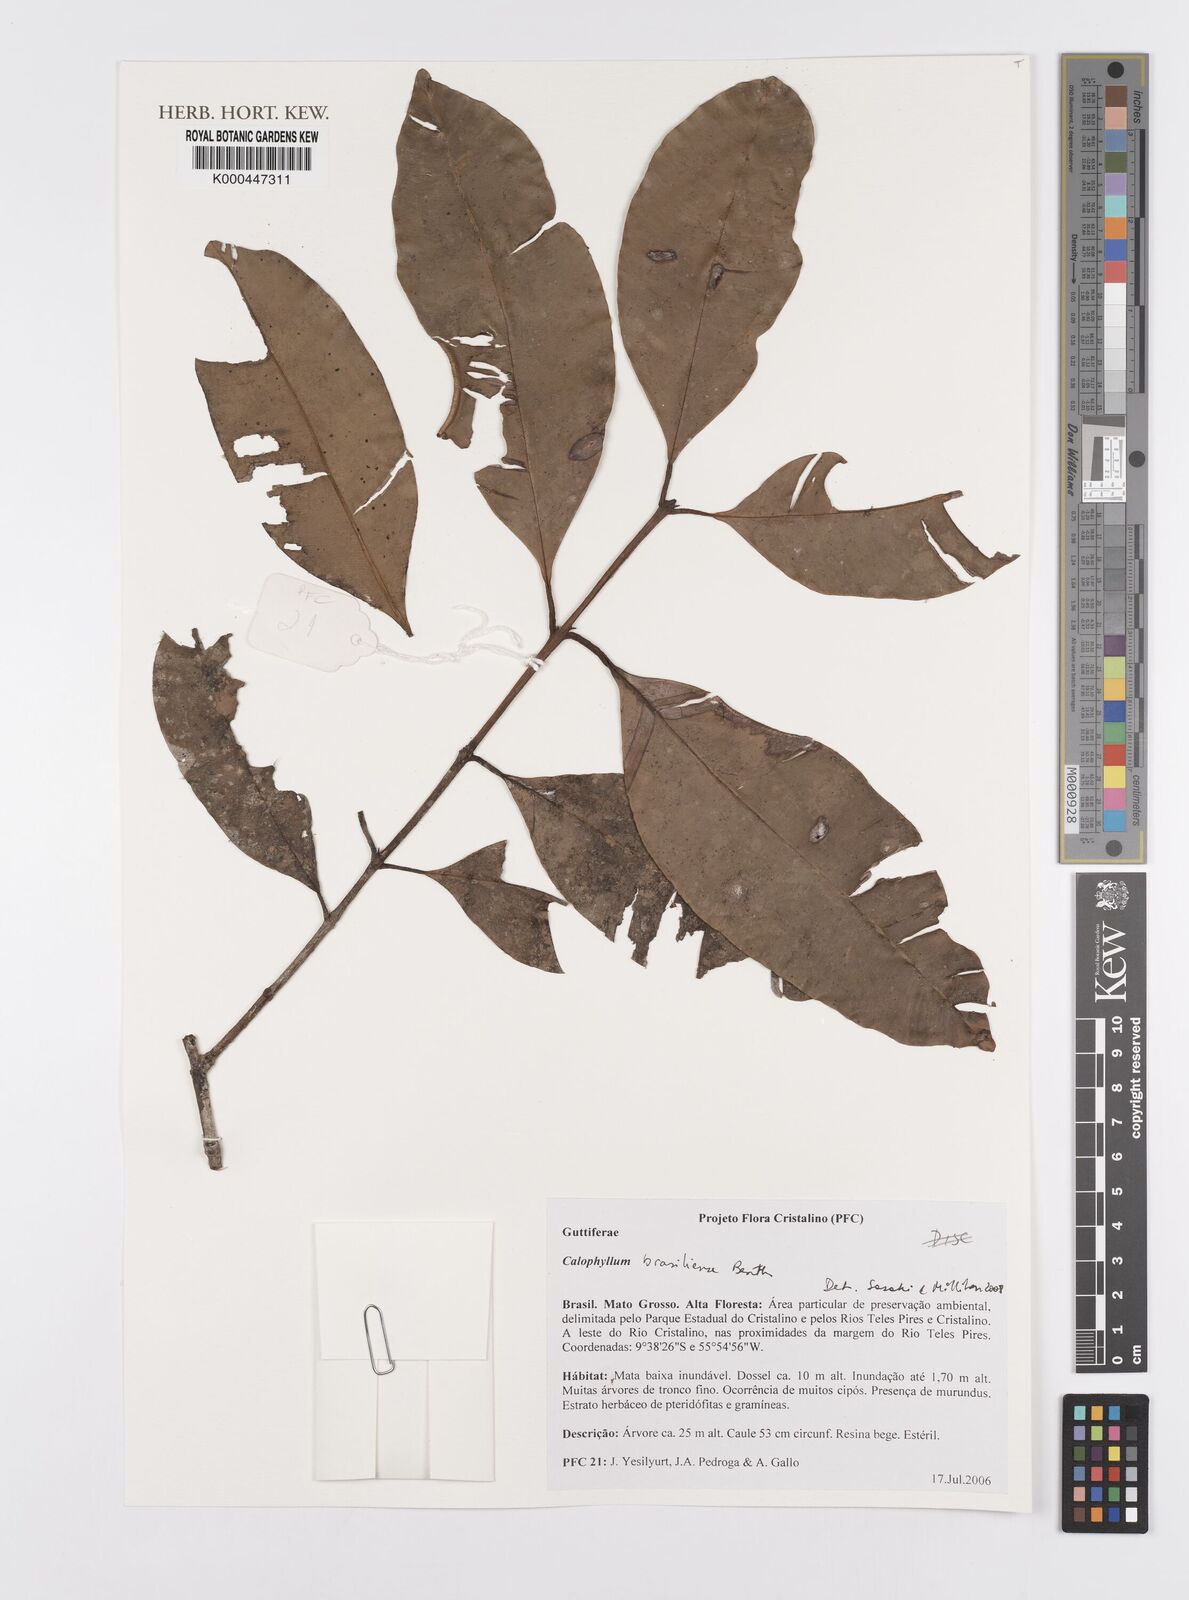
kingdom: Plantae
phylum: Tracheophyta
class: Magnoliopsida
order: Malpighiales
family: Calophyllaceae
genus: Calophyllum
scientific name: Calophyllum brasiliense
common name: Santa maria
